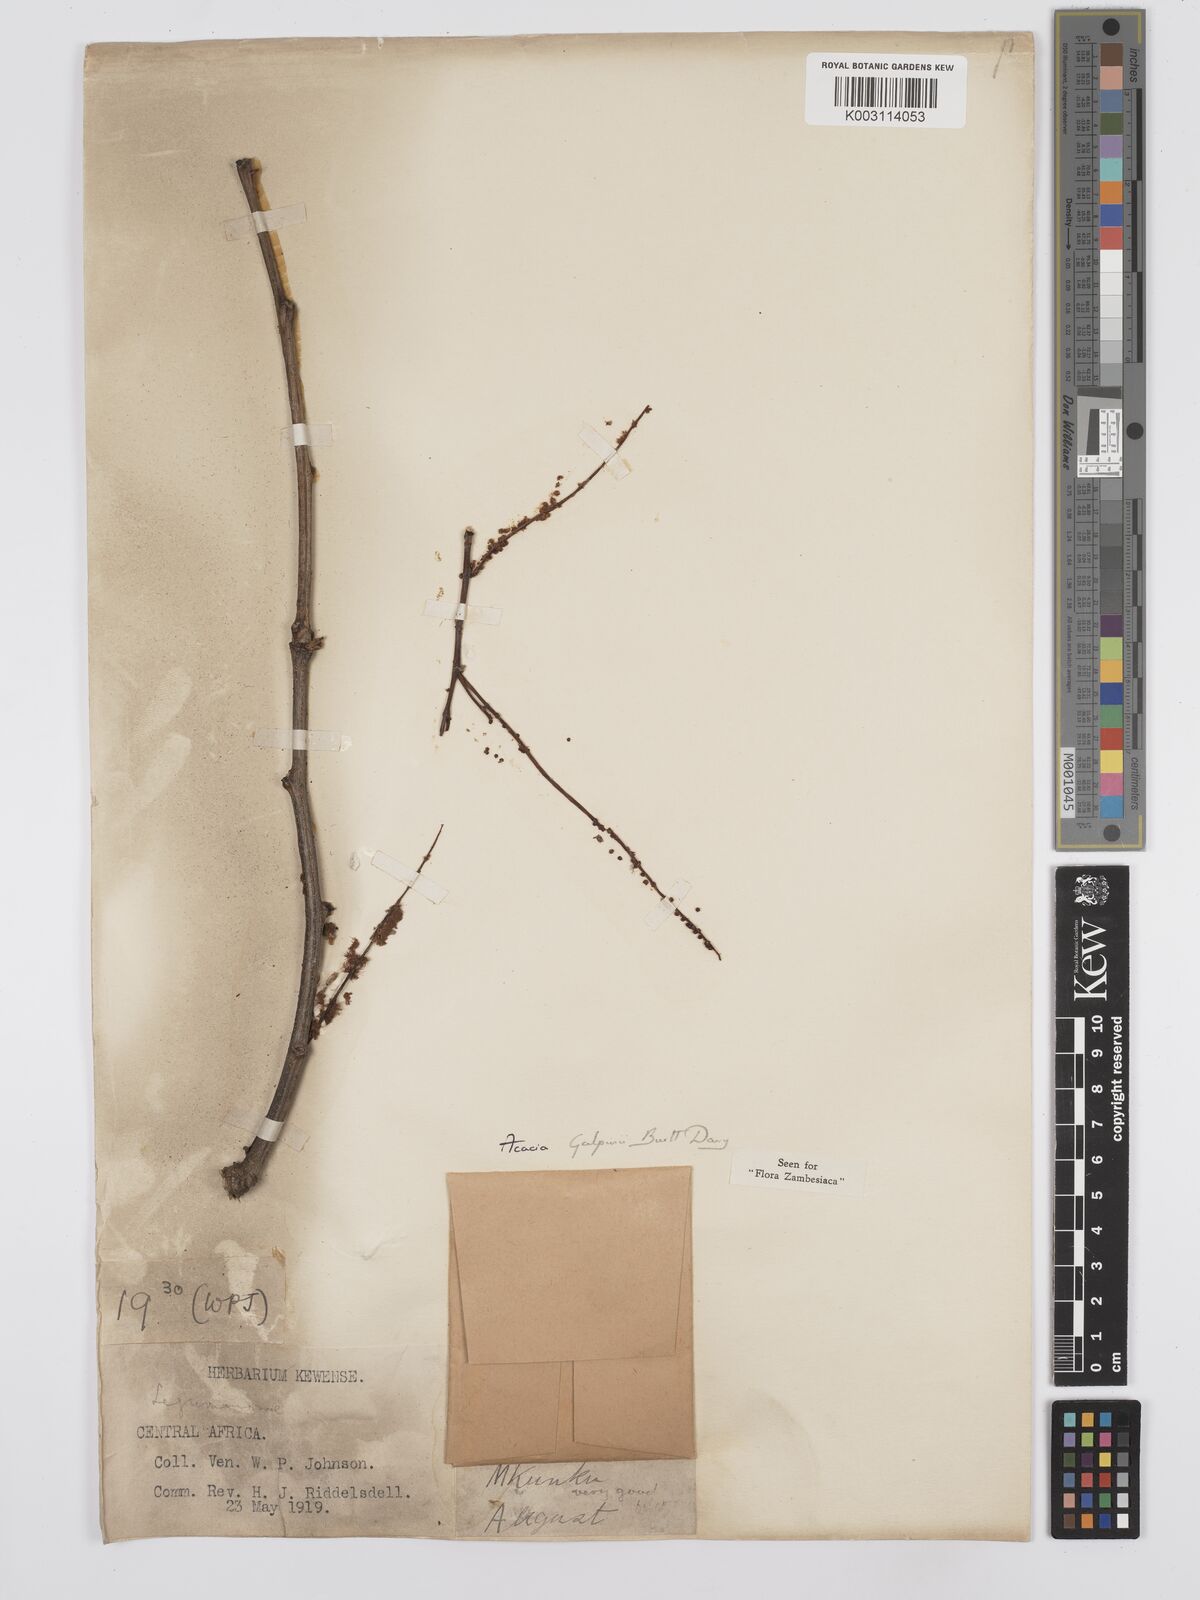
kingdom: Plantae
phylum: Tracheophyta
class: Magnoliopsida
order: Fabales
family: Fabaceae
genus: Senegalia
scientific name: Senegalia galpinii
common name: Monkey-thorn
